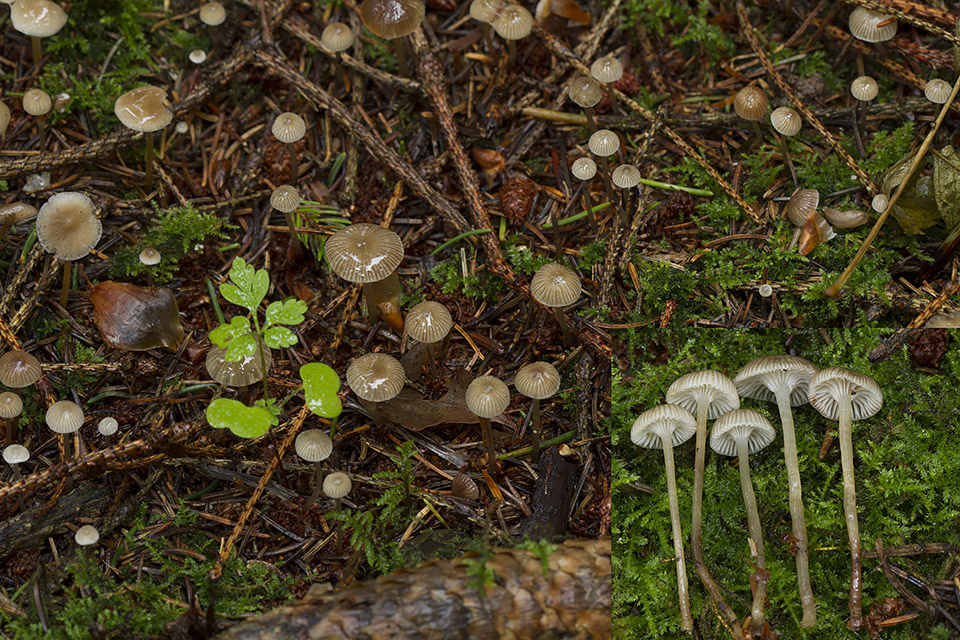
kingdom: Fungi
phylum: Basidiomycota
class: Agaricomycetes
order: Agaricales
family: Mycenaceae
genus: Mycena
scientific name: Mycena vulgaris
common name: klæbrig huesvamp
